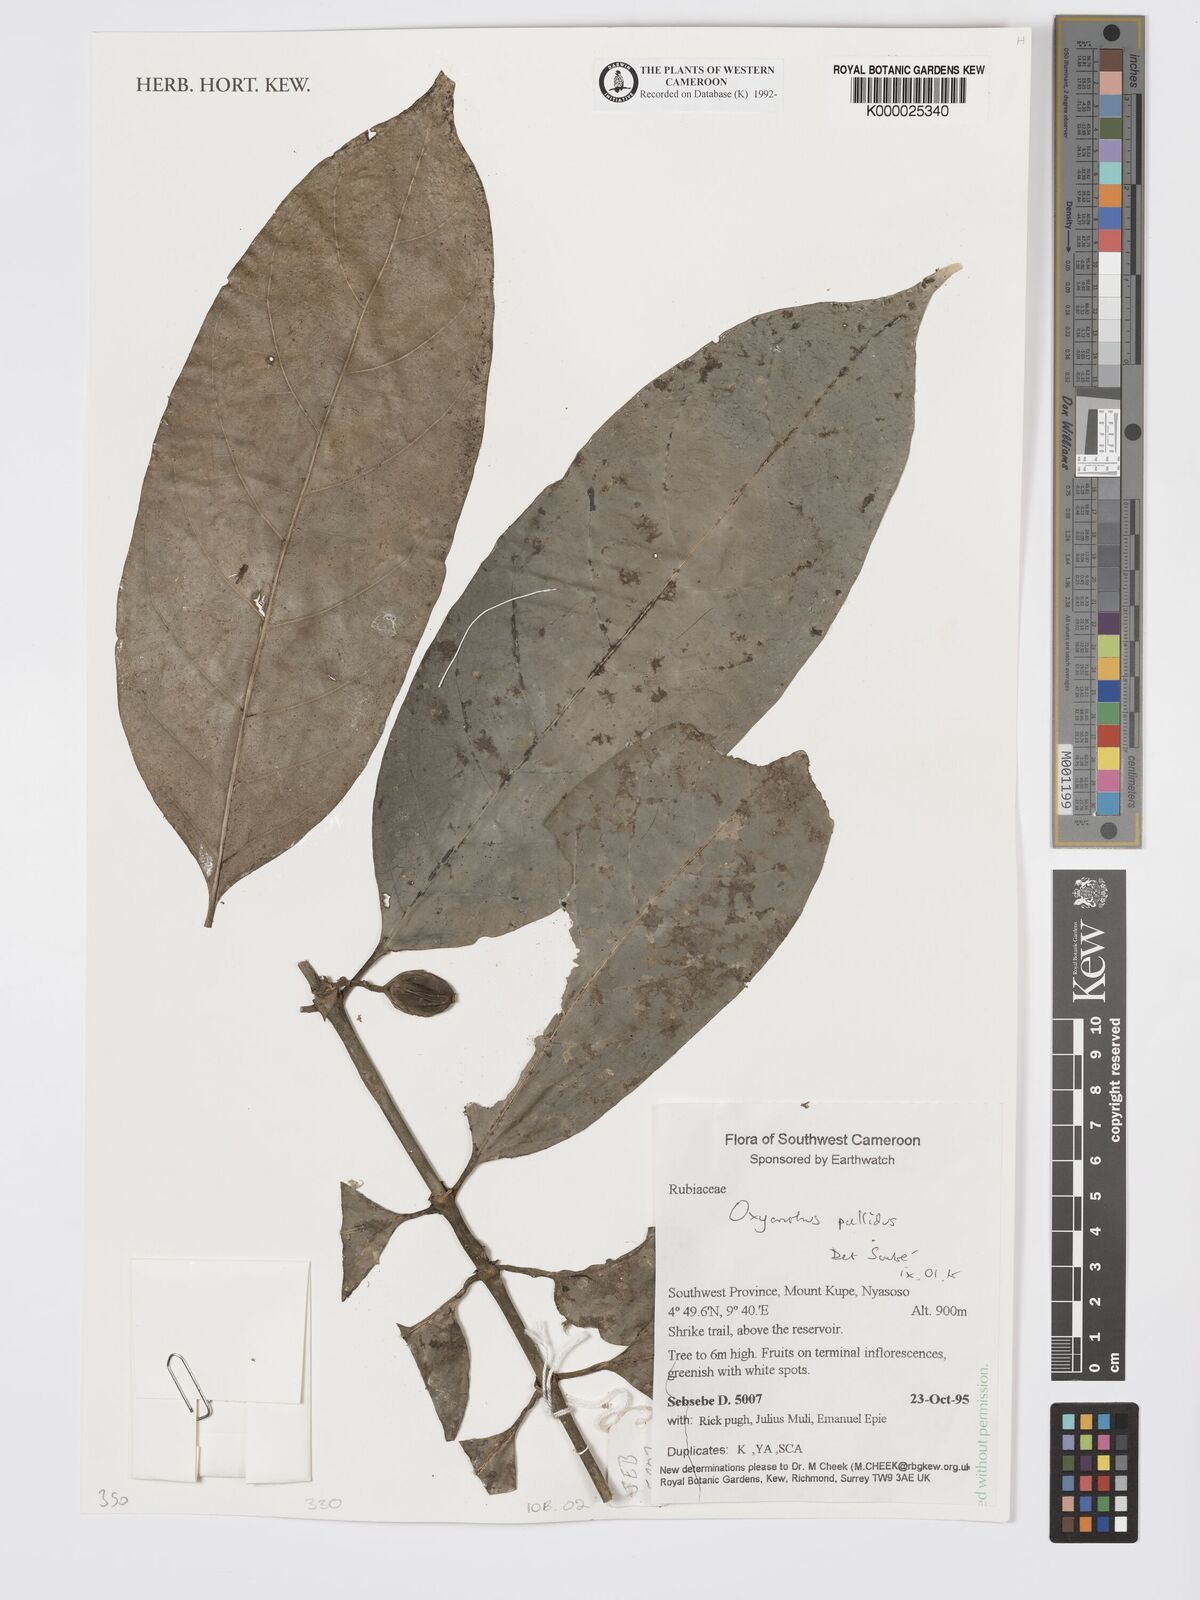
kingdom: Plantae
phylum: Tracheophyta
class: Magnoliopsida
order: Gentianales
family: Rubiaceae
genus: Oxyanthus
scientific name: Oxyanthus pallidus
